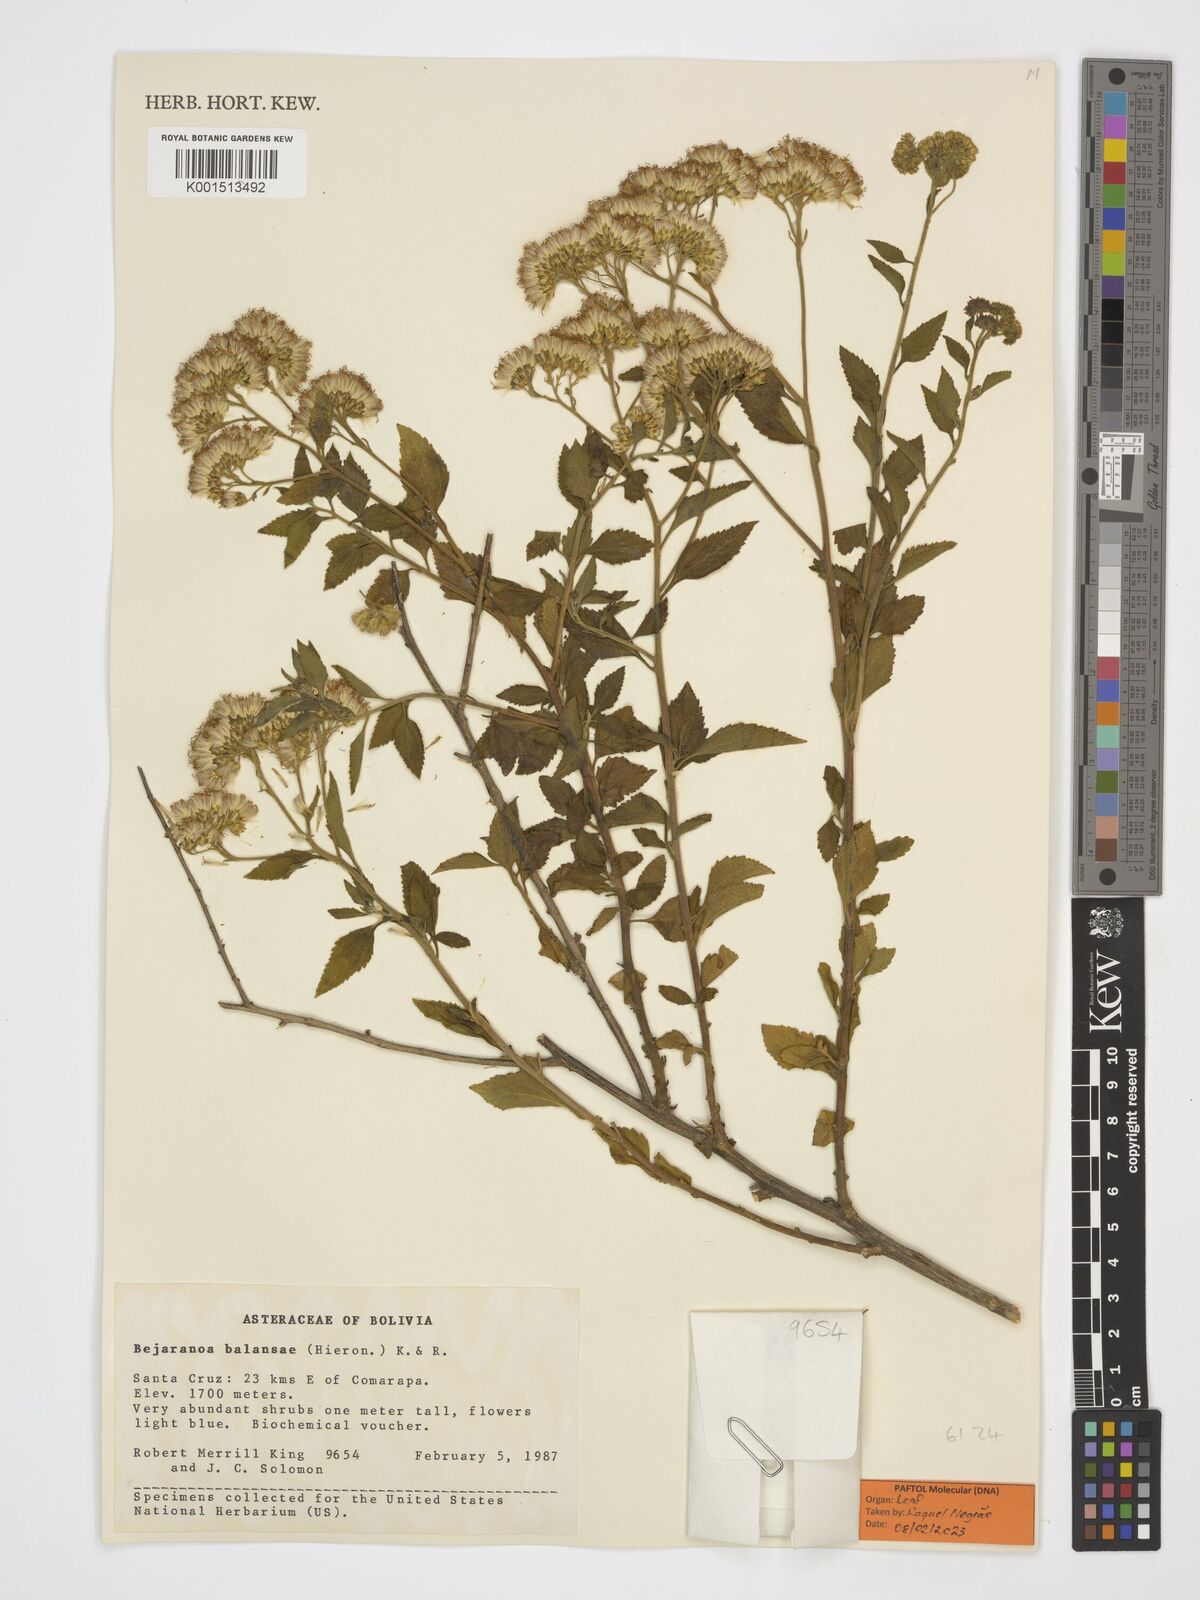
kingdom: Plantae
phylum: Tracheophyta
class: Magnoliopsida
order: Asterales
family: Asteraceae
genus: Bejaranoa
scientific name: Bejaranoa balansae
